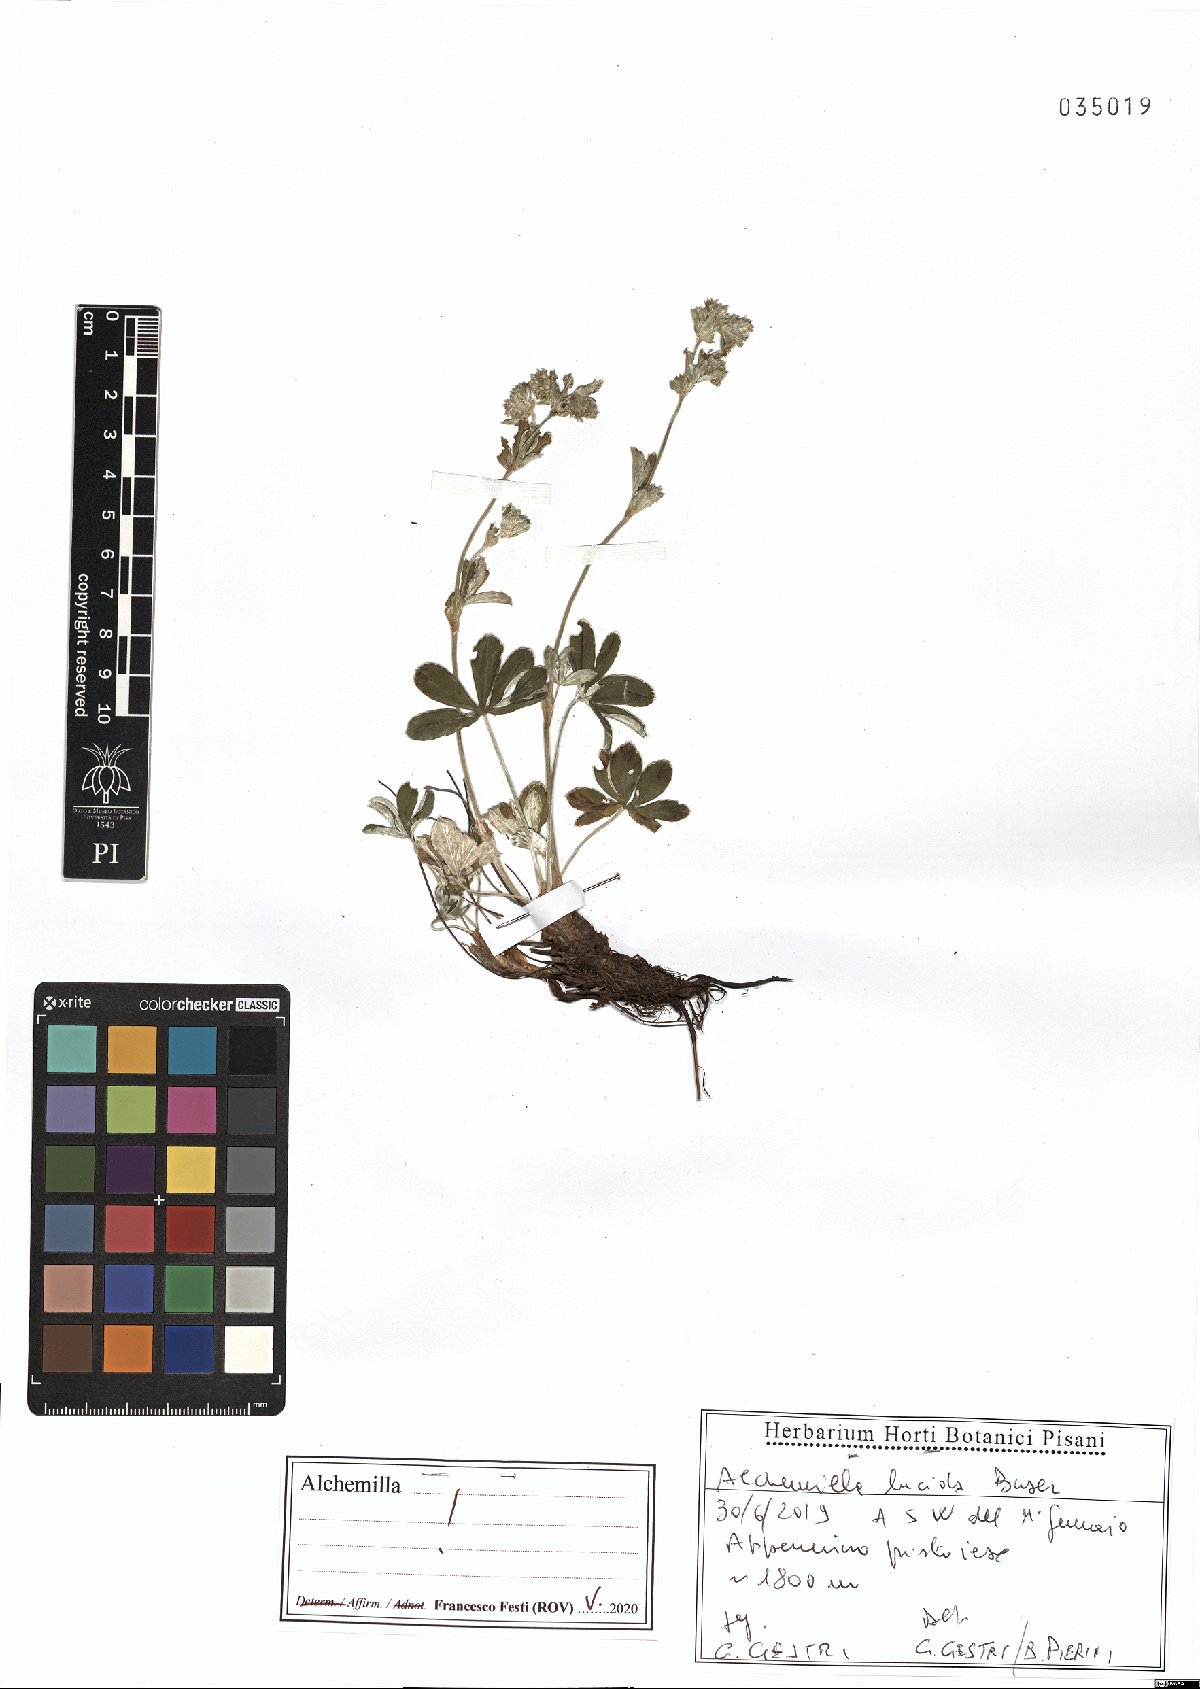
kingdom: Plantae
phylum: Tracheophyta
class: Magnoliopsida
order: Rosales
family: Rosaceae
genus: Alchemilla
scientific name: Alchemilla lucida
